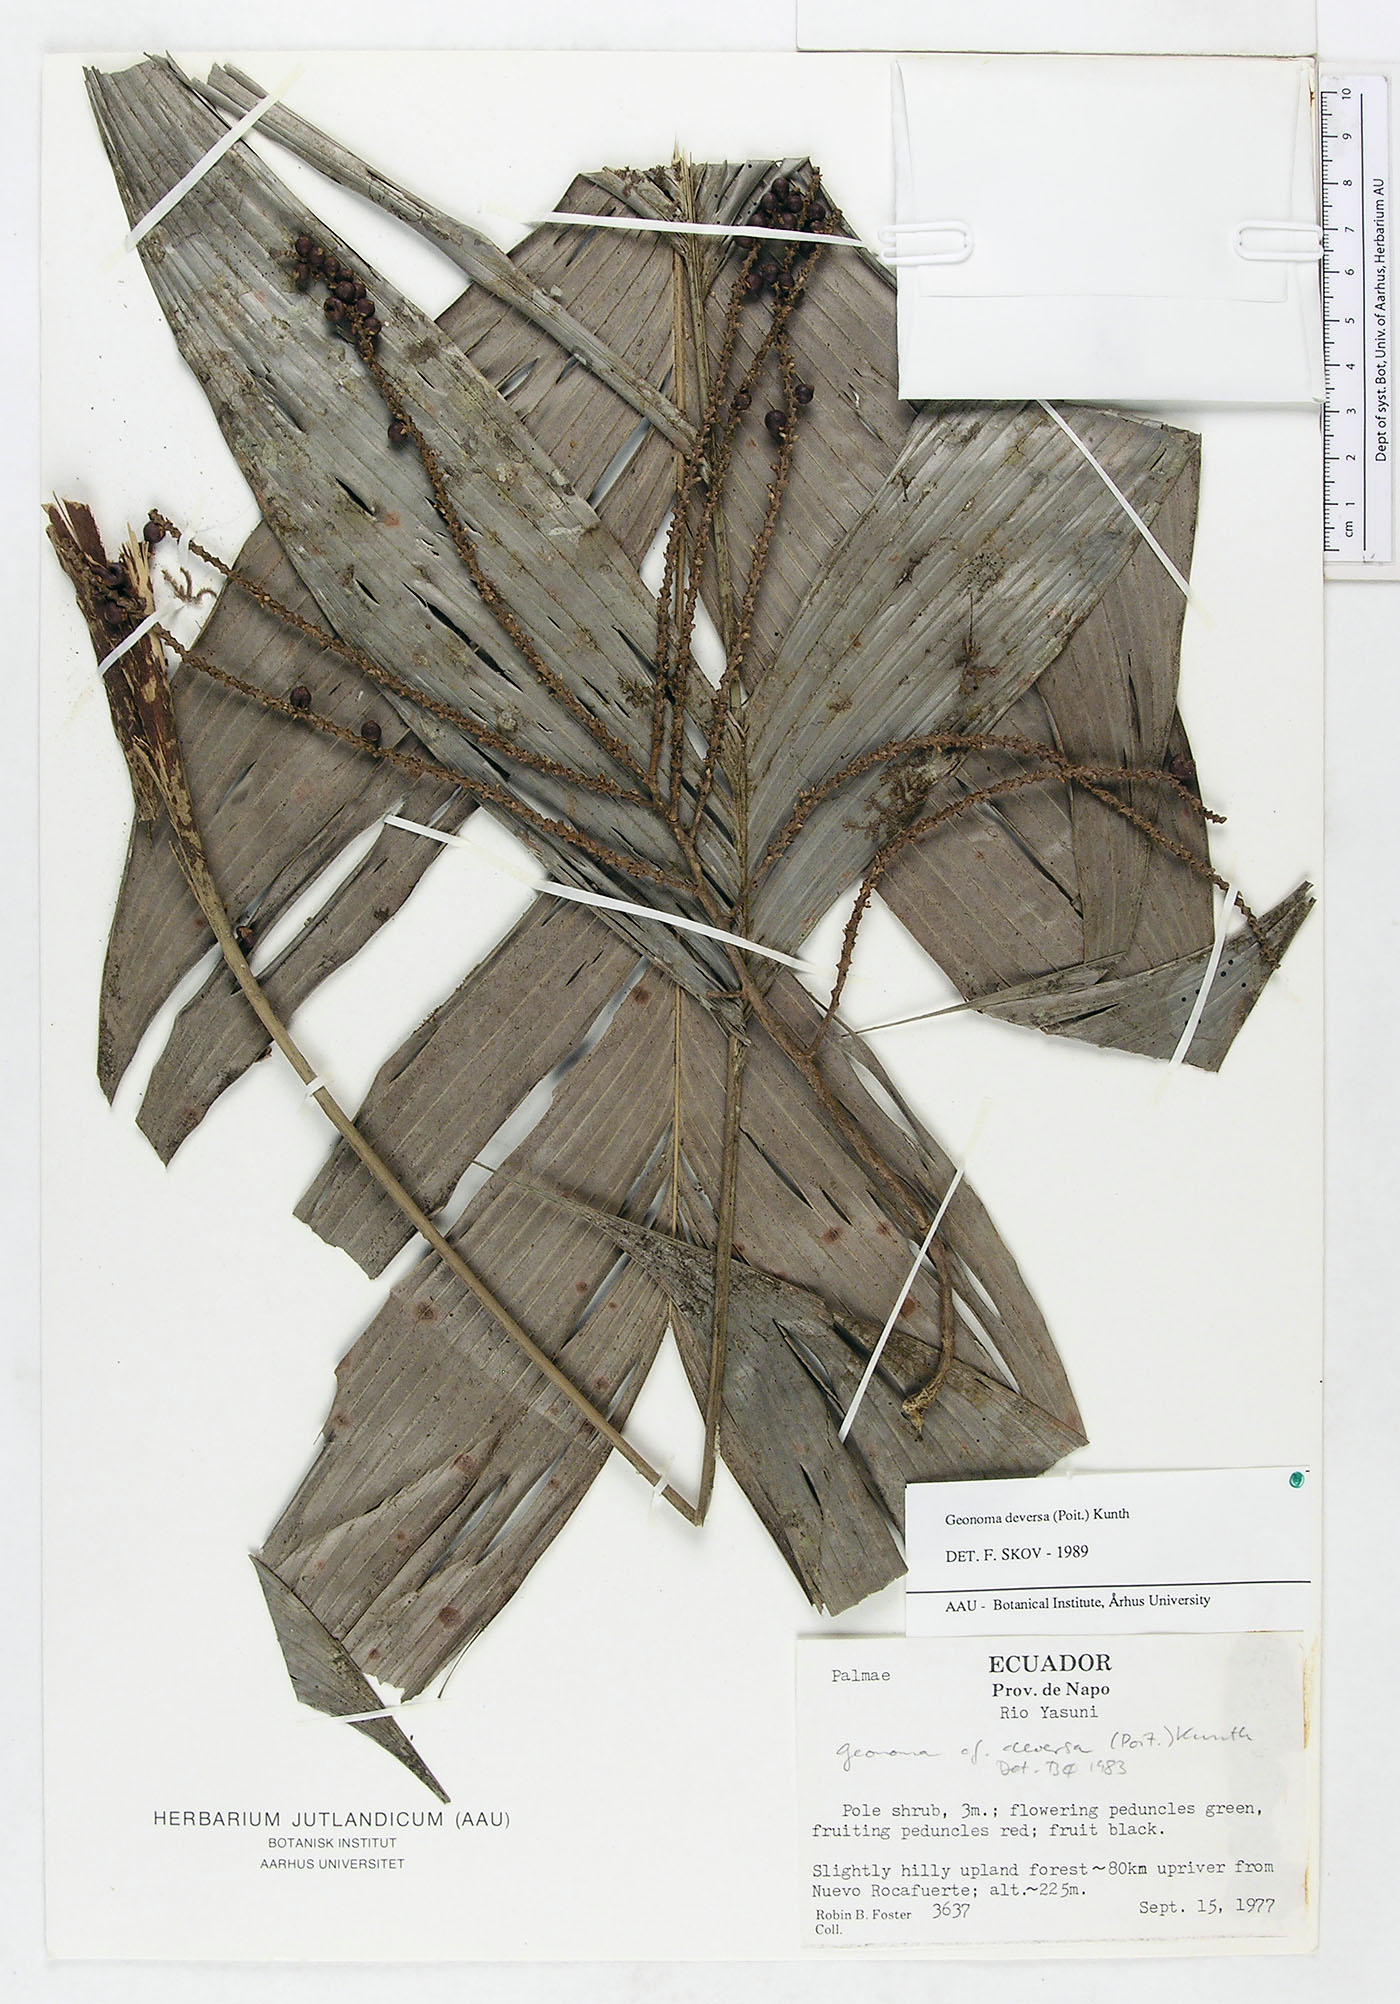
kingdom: Plantae
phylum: Tracheophyta
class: Liliopsida
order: Arecales
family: Arecaceae
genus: Geonoma
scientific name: Geonoma deversa
